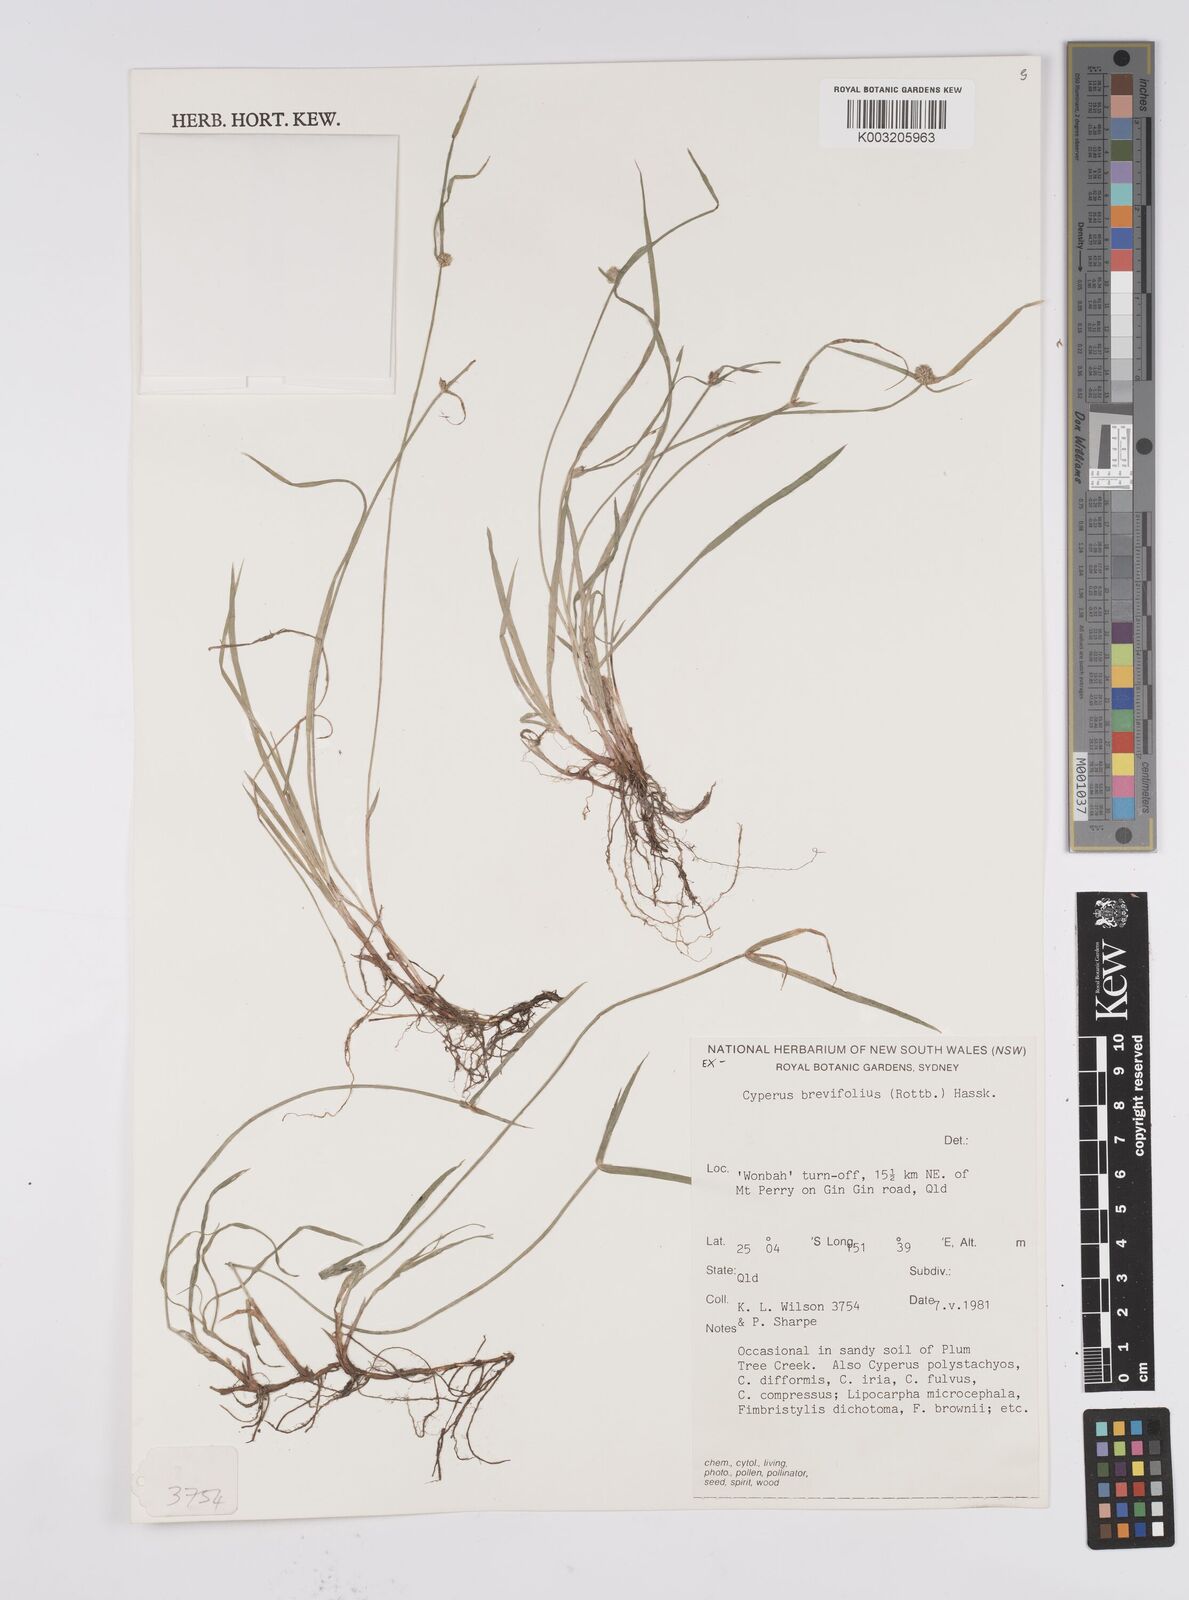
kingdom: Plantae
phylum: Tracheophyta
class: Liliopsida
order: Poales
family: Cyperaceae
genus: Cyperus
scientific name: Cyperus brevifolius
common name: Globe kyllinga
